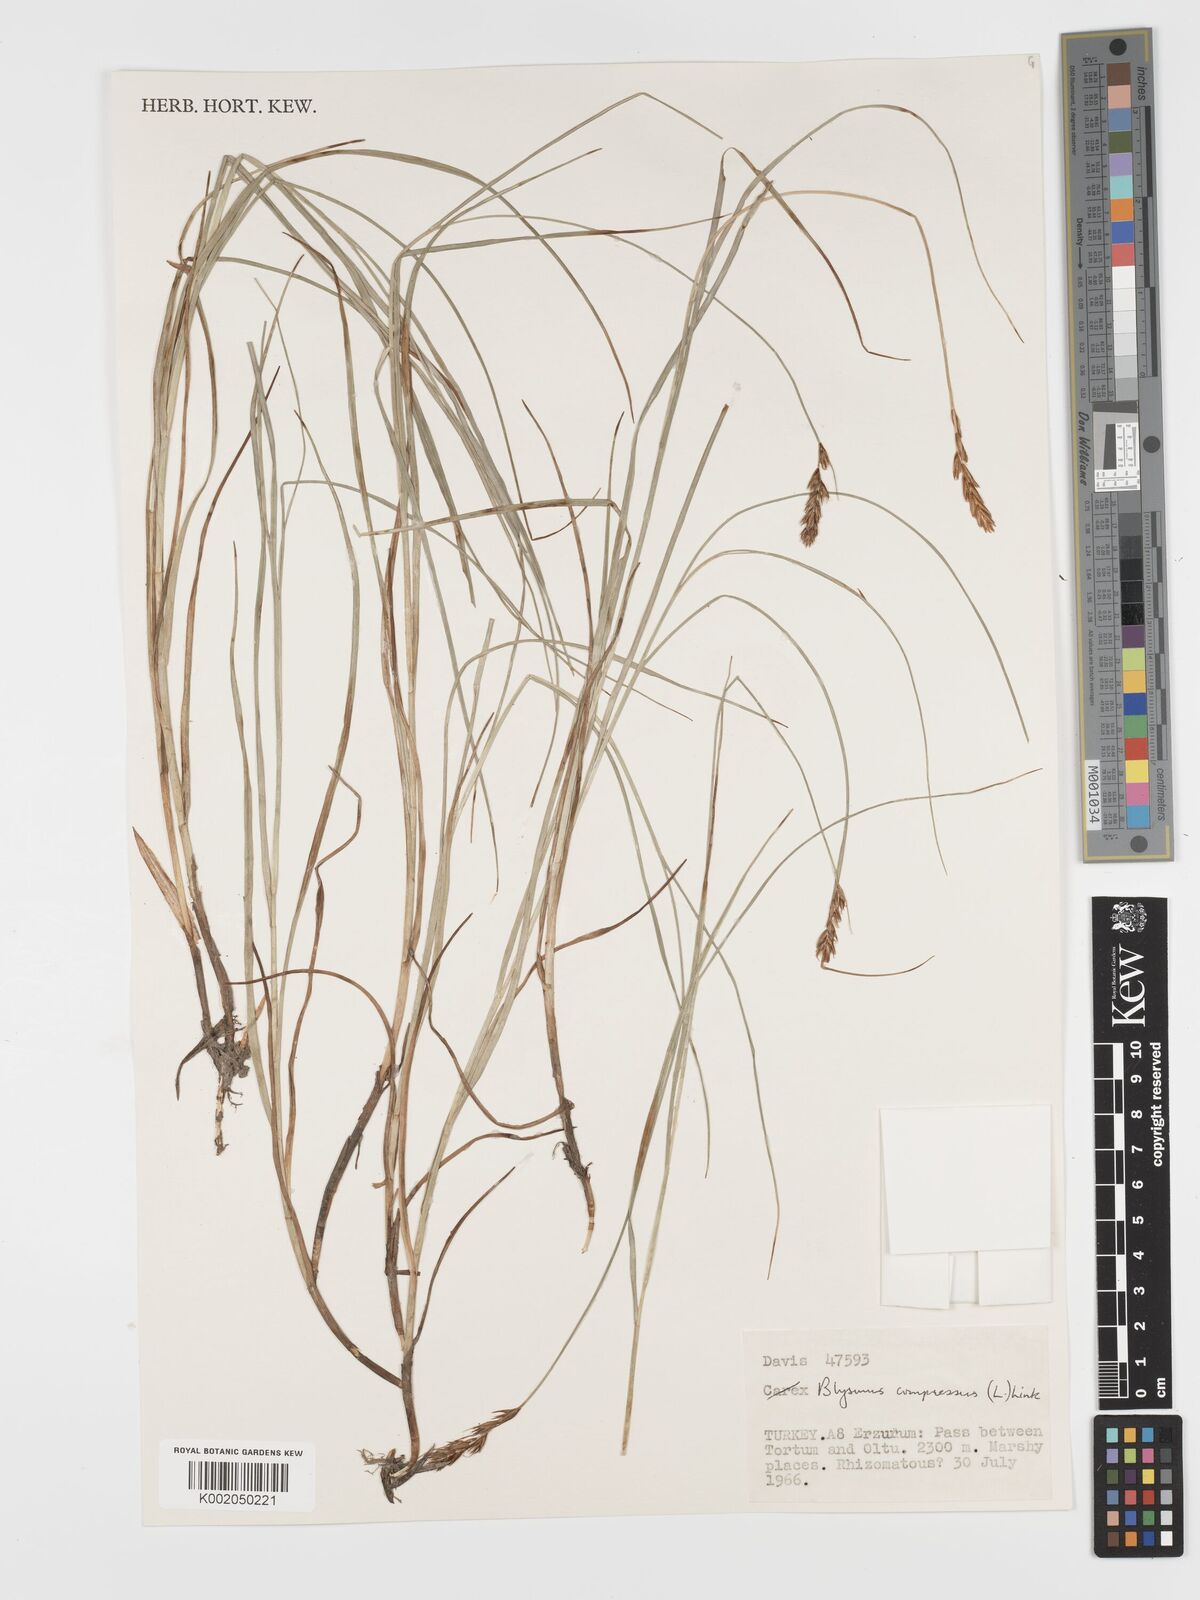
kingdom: Plantae
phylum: Tracheophyta
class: Liliopsida
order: Poales
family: Cyperaceae
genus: Blysmus
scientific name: Blysmus compressus
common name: Flat-sedge
